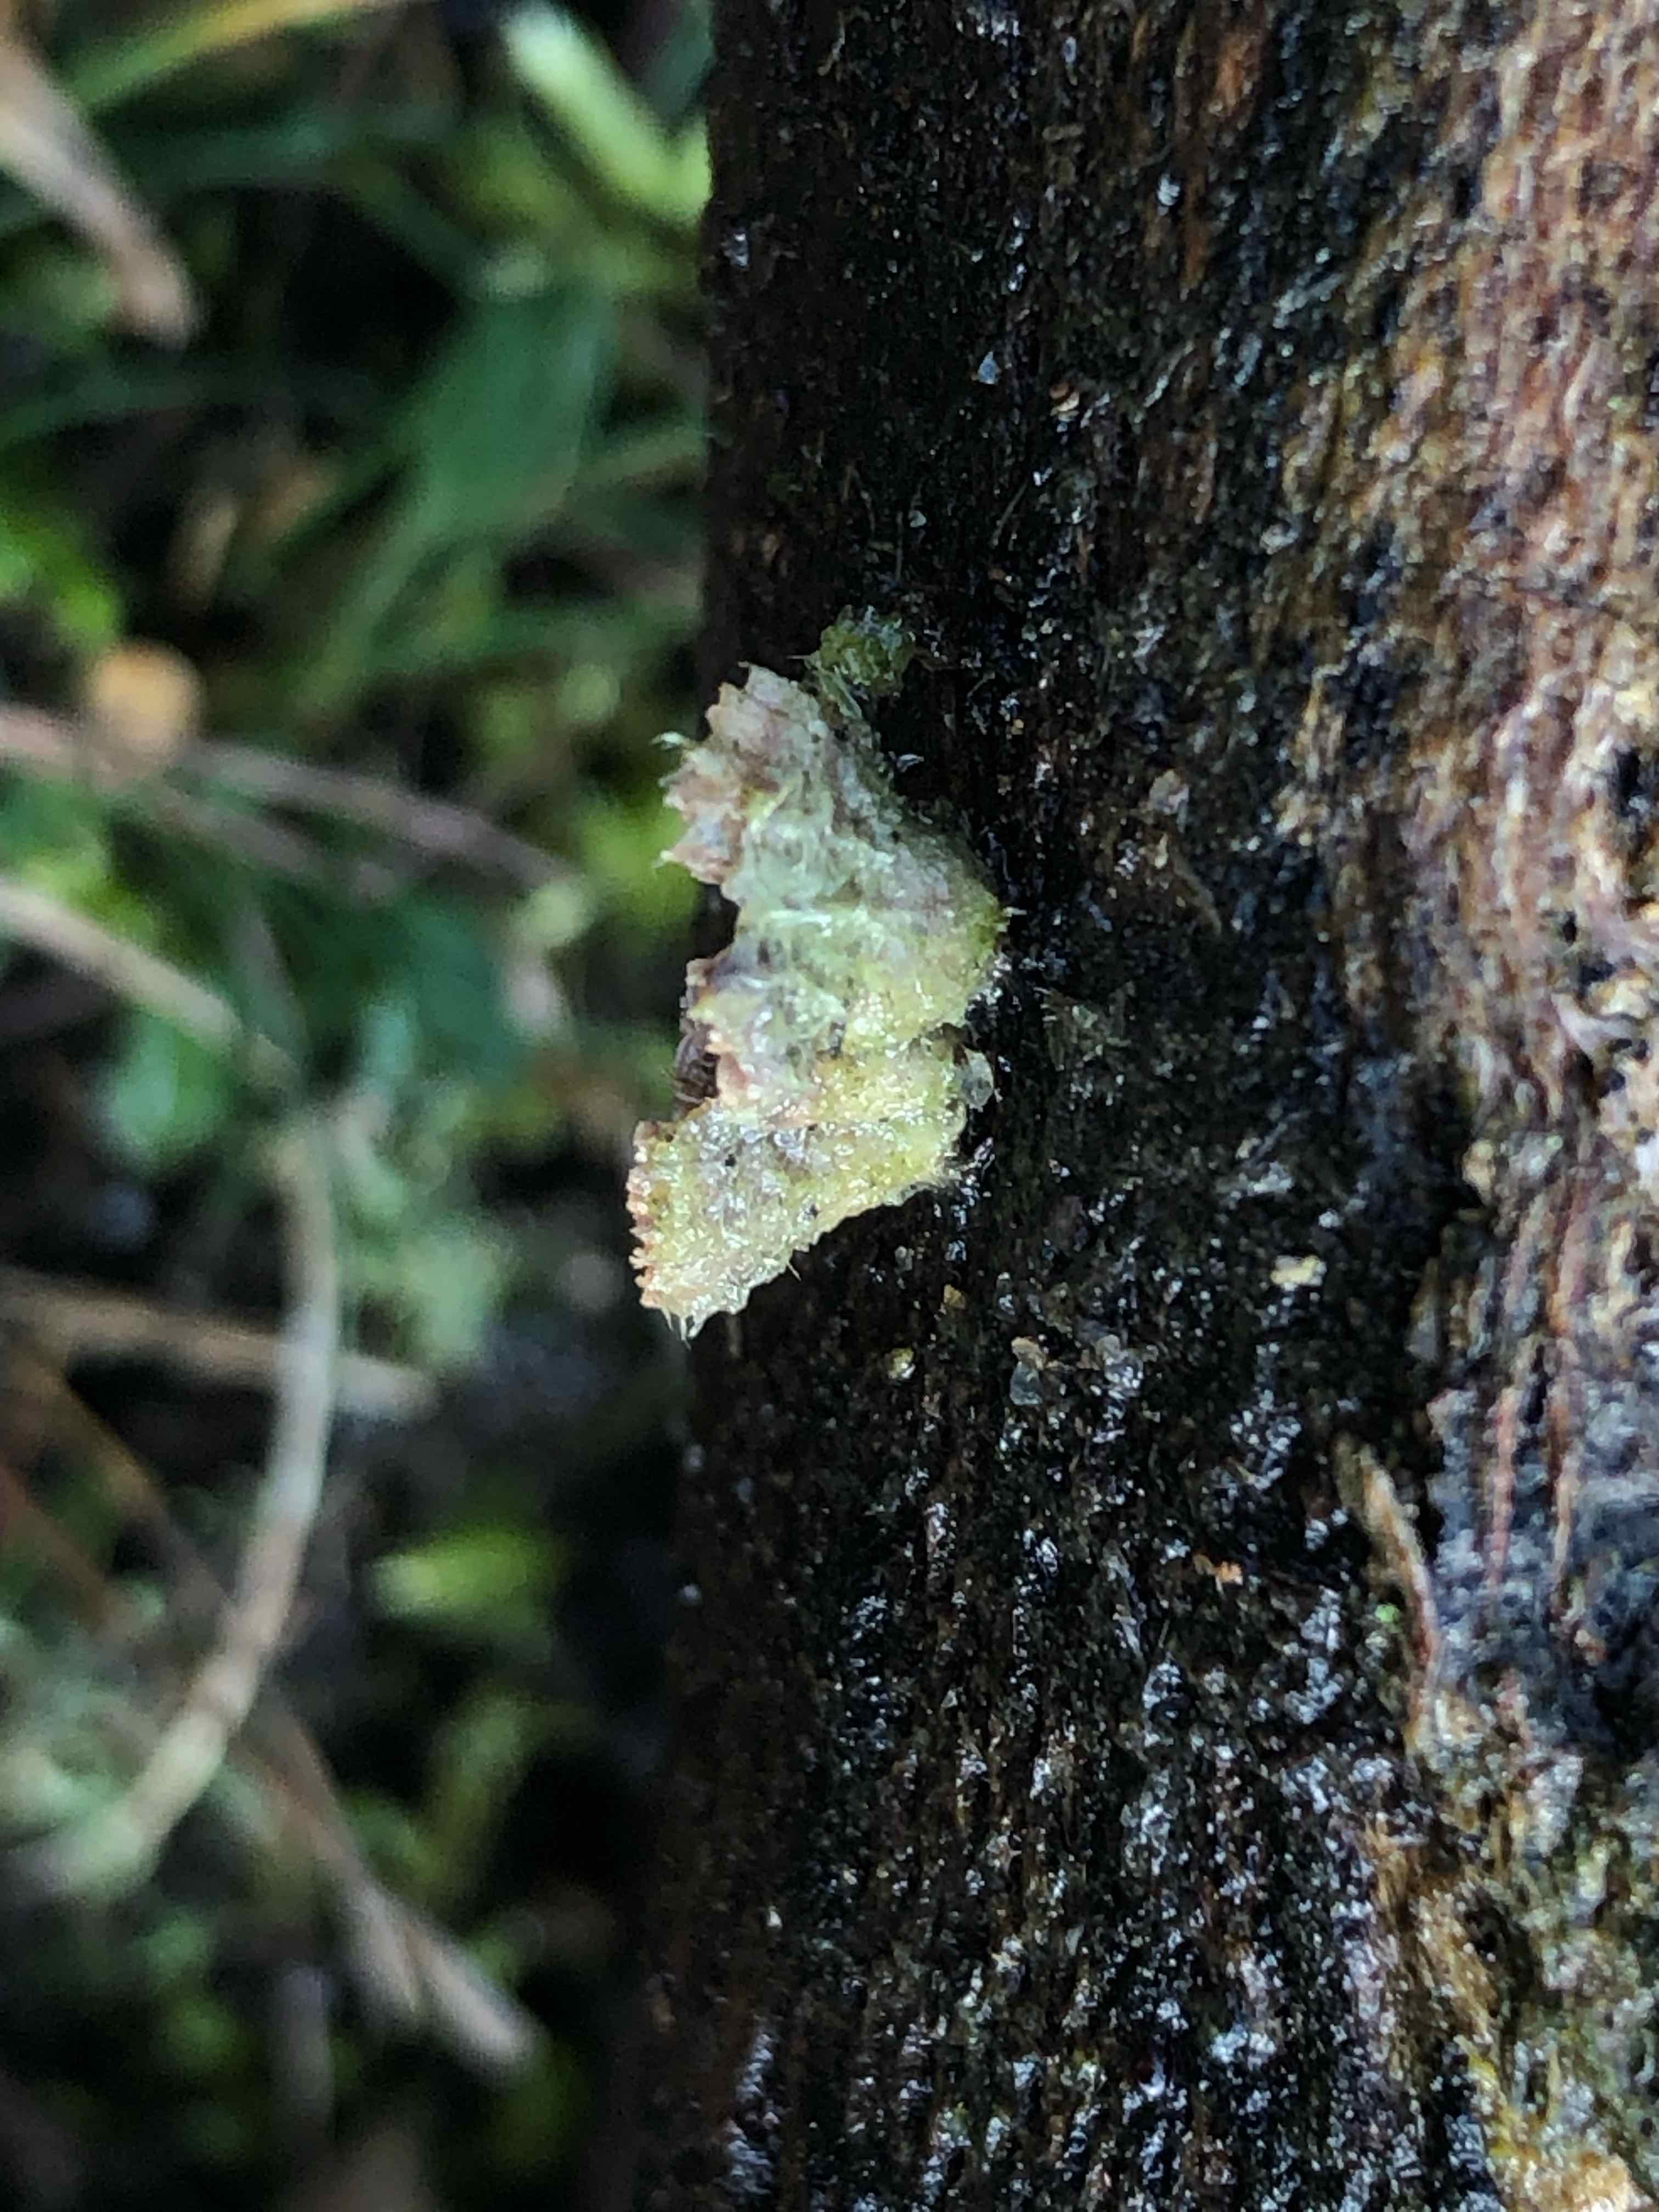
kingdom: Fungi
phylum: Basidiomycota
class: Agaricomycetes
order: Agaricales
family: Schizophyllaceae
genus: Schizophyllum
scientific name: Schizophyllum commune
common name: kløvblad
